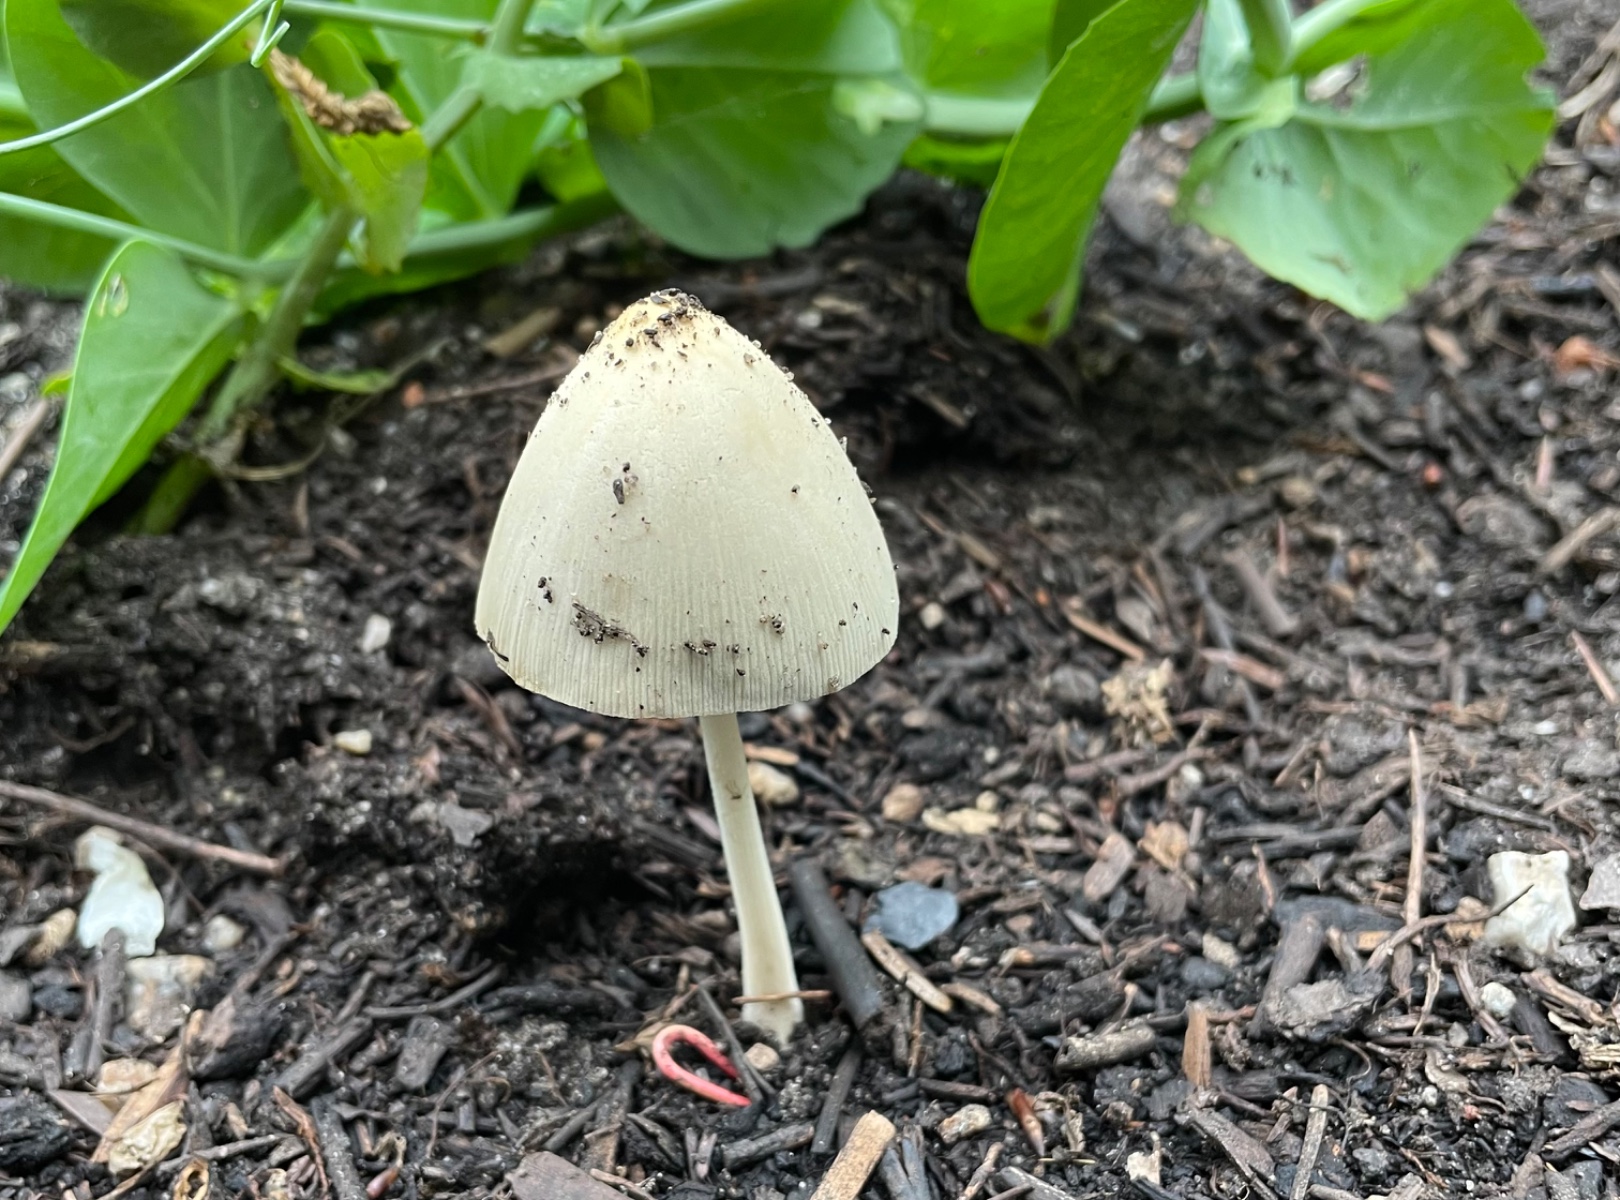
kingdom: Fungi
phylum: Basidiomycota
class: Agaricomycetes
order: Agaricales
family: Bolbitiaceae
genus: Conocybe
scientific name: Conocybe
